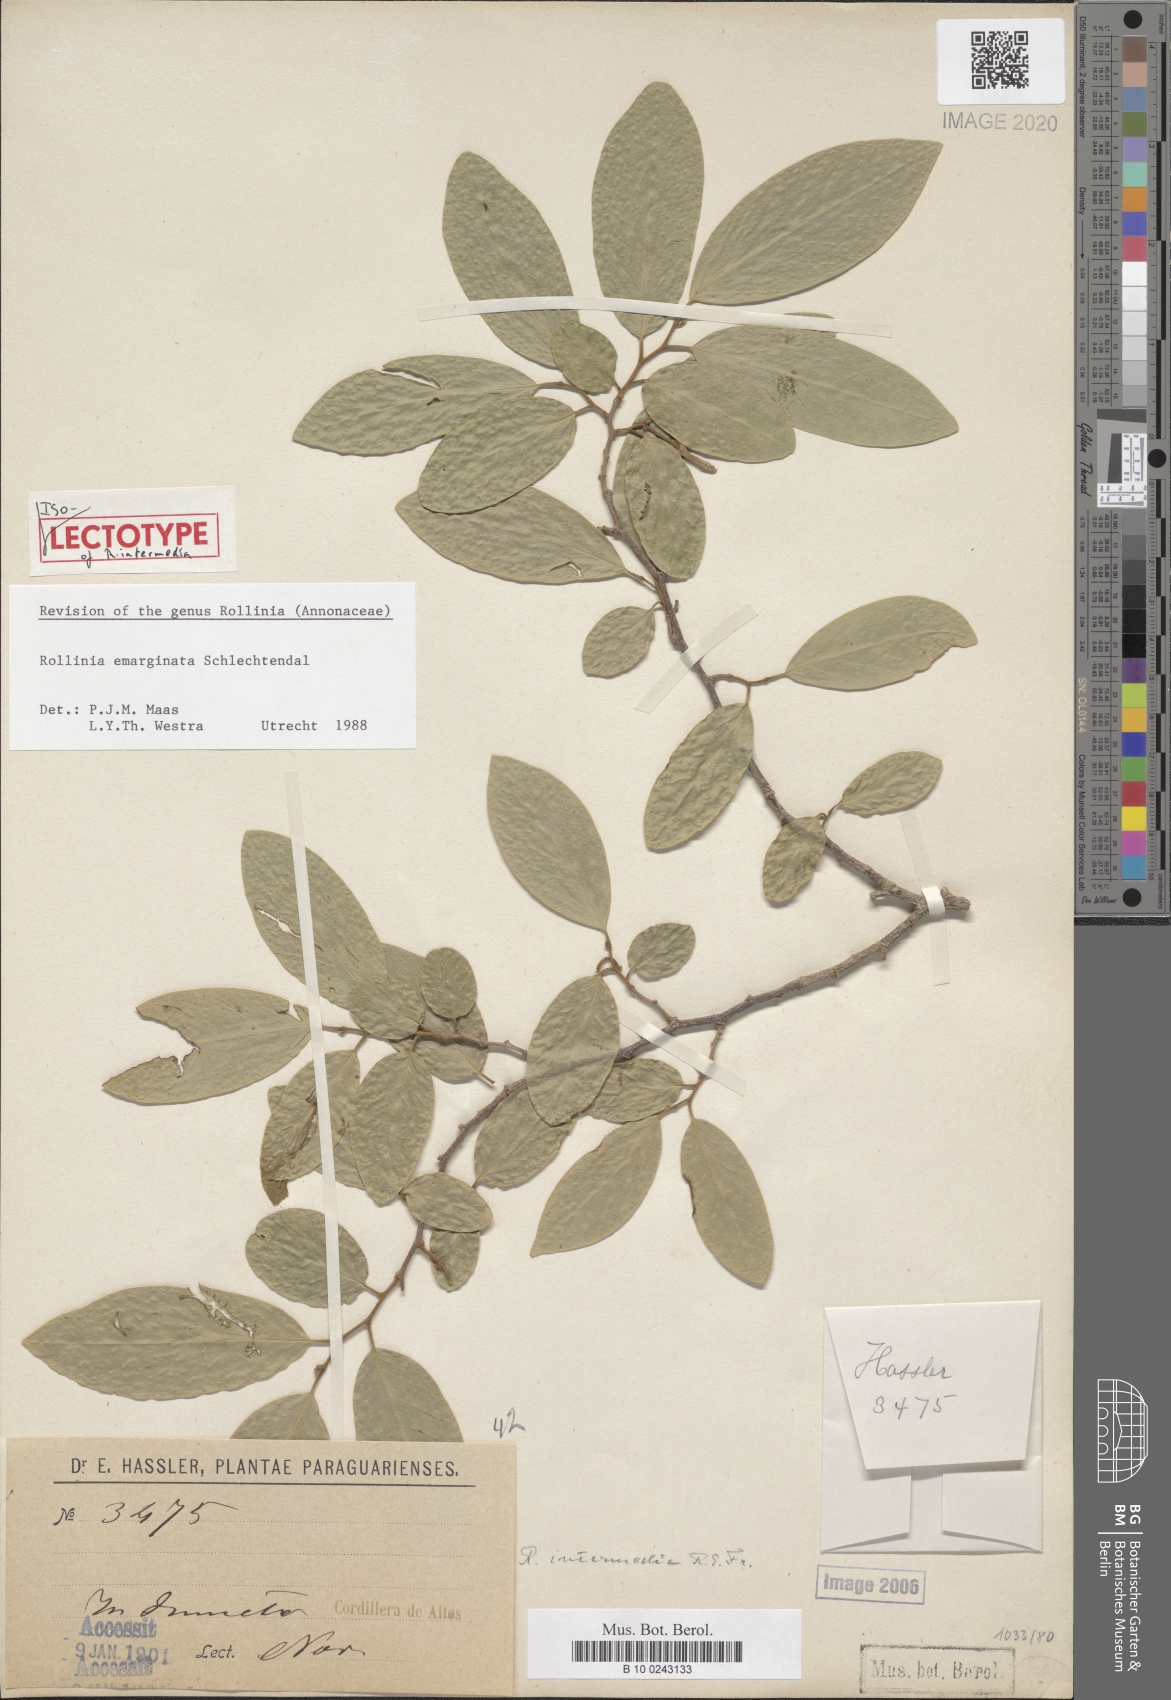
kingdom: Plantae
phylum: Tracheophyta
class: Magnoliopsida
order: Magnoliales
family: Annonaceae
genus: Annona
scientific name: Annona emarginata
